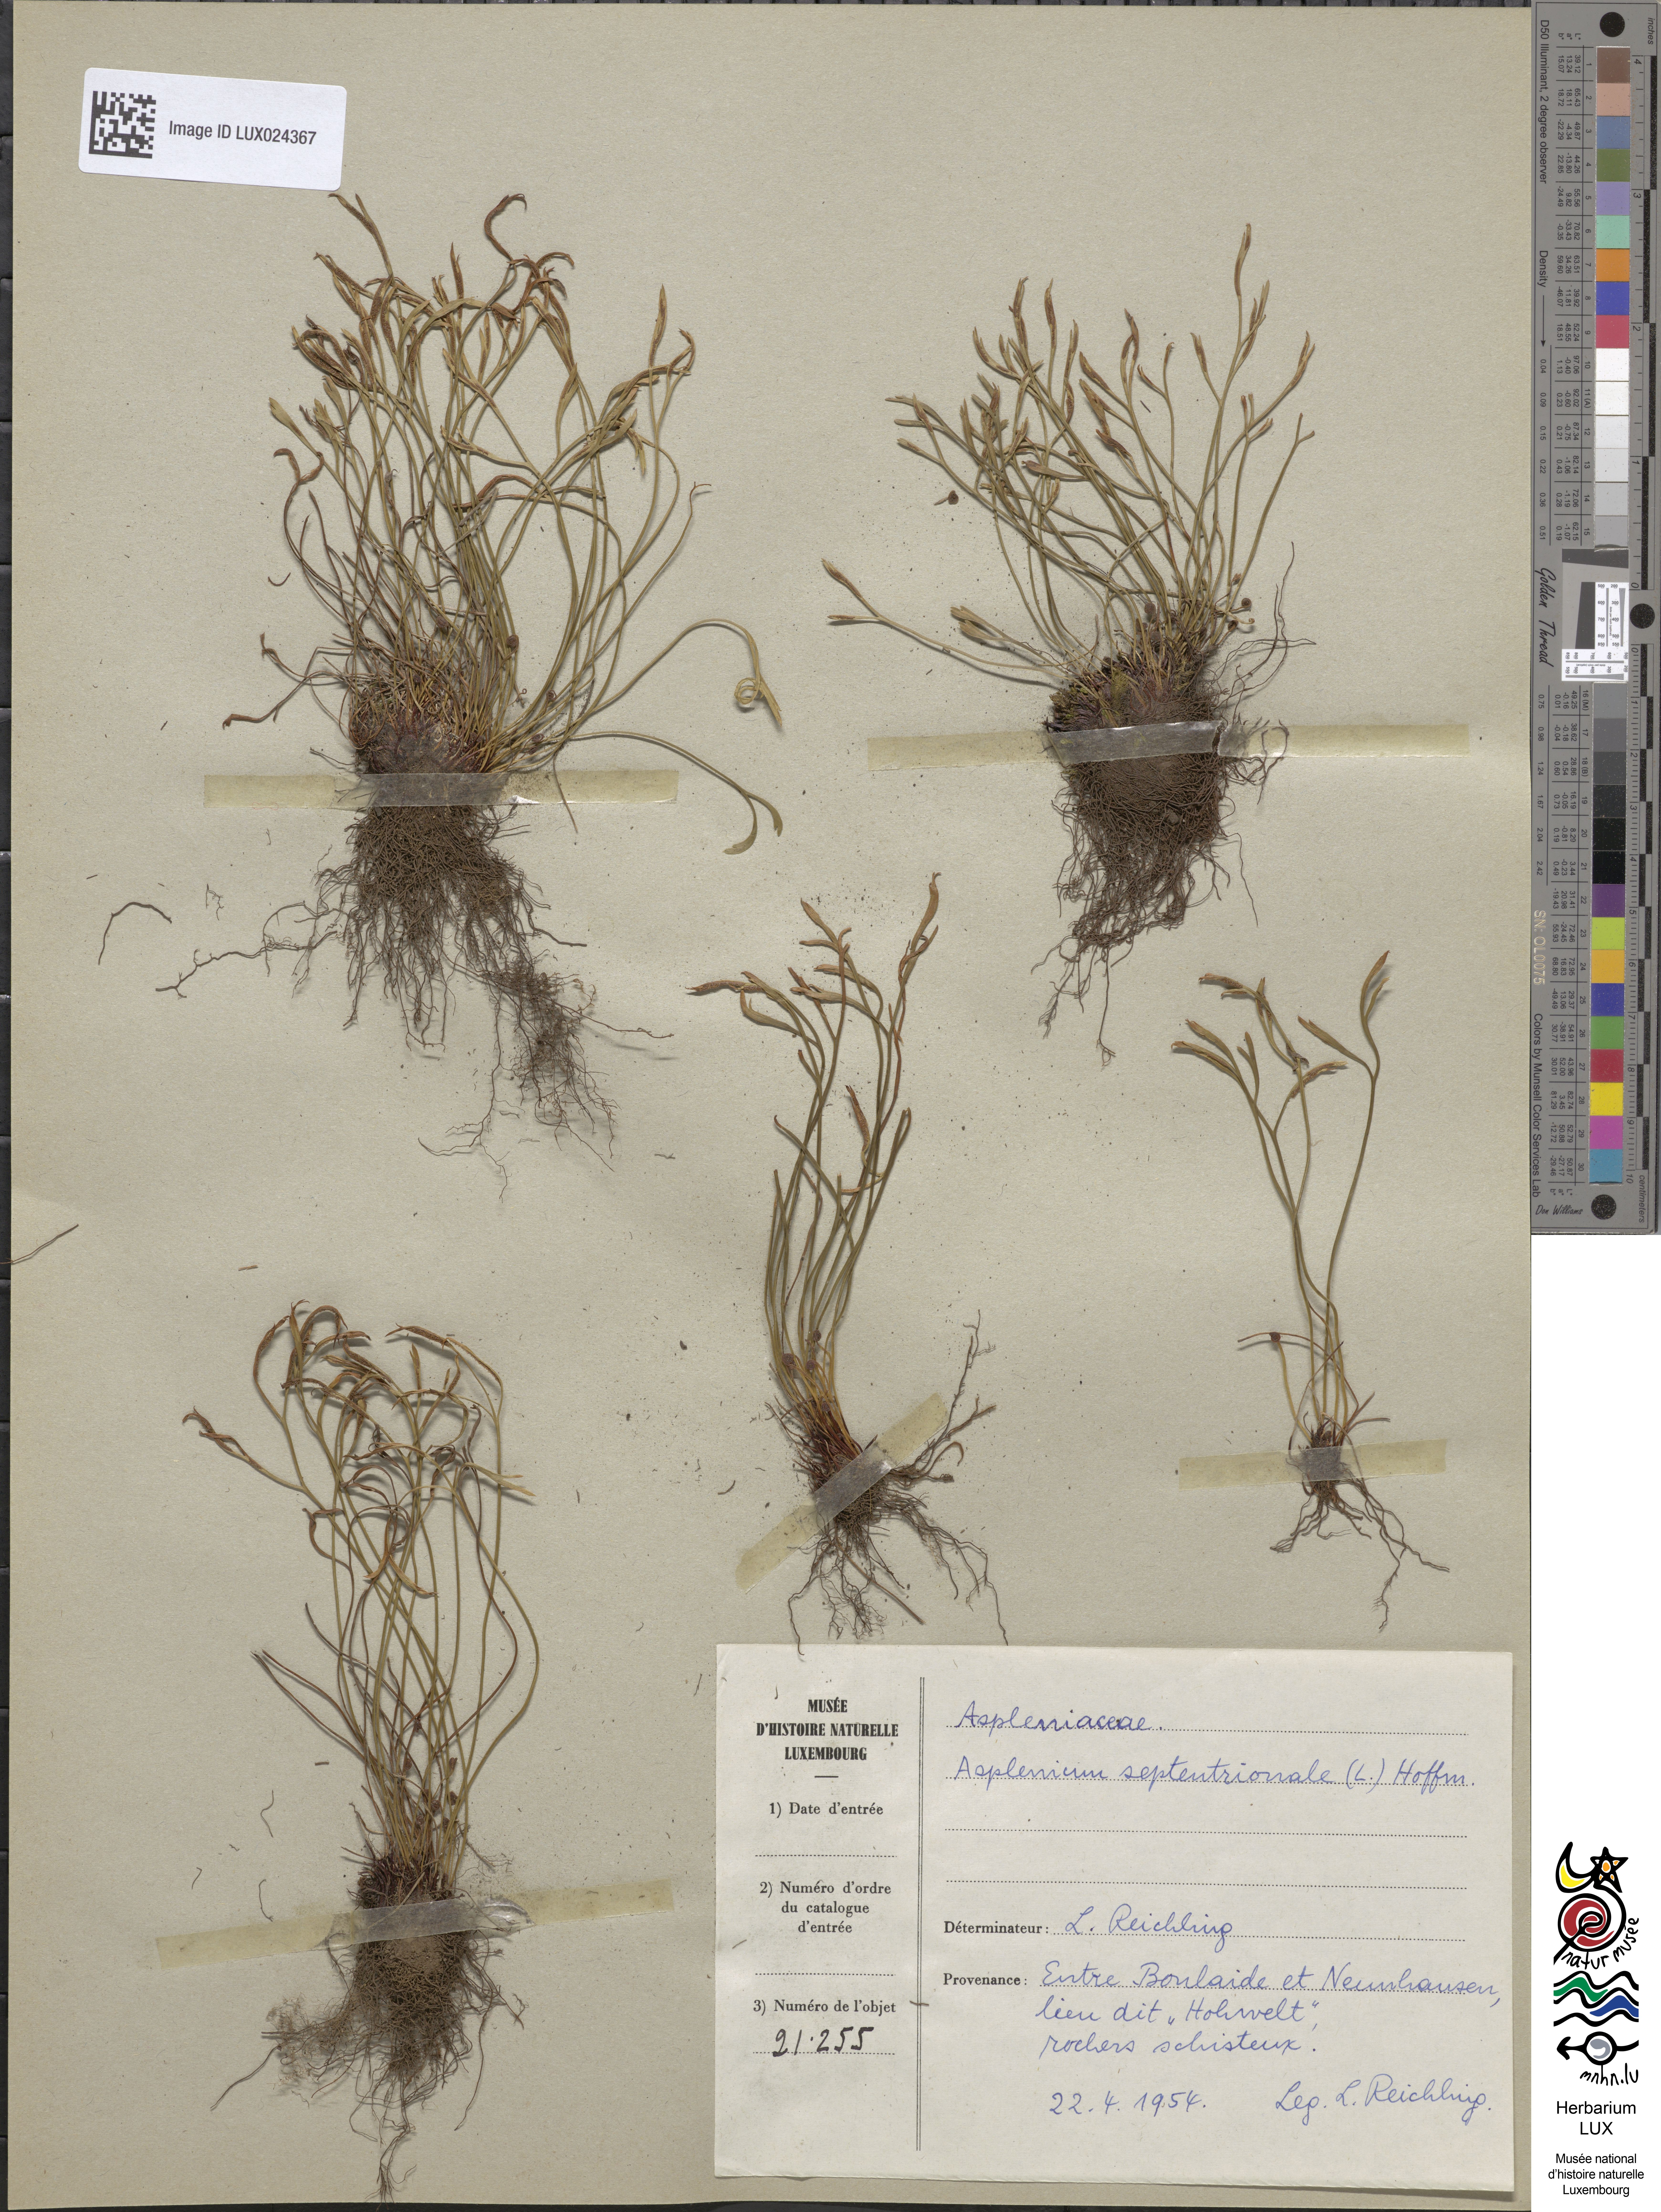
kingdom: Plantae
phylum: Tracheophyta
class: Polypodiopsida
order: Polypodiales
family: Aspleniaceae
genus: Asplenium
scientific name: Asplenium septentrionale
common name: Forked spleenwort
